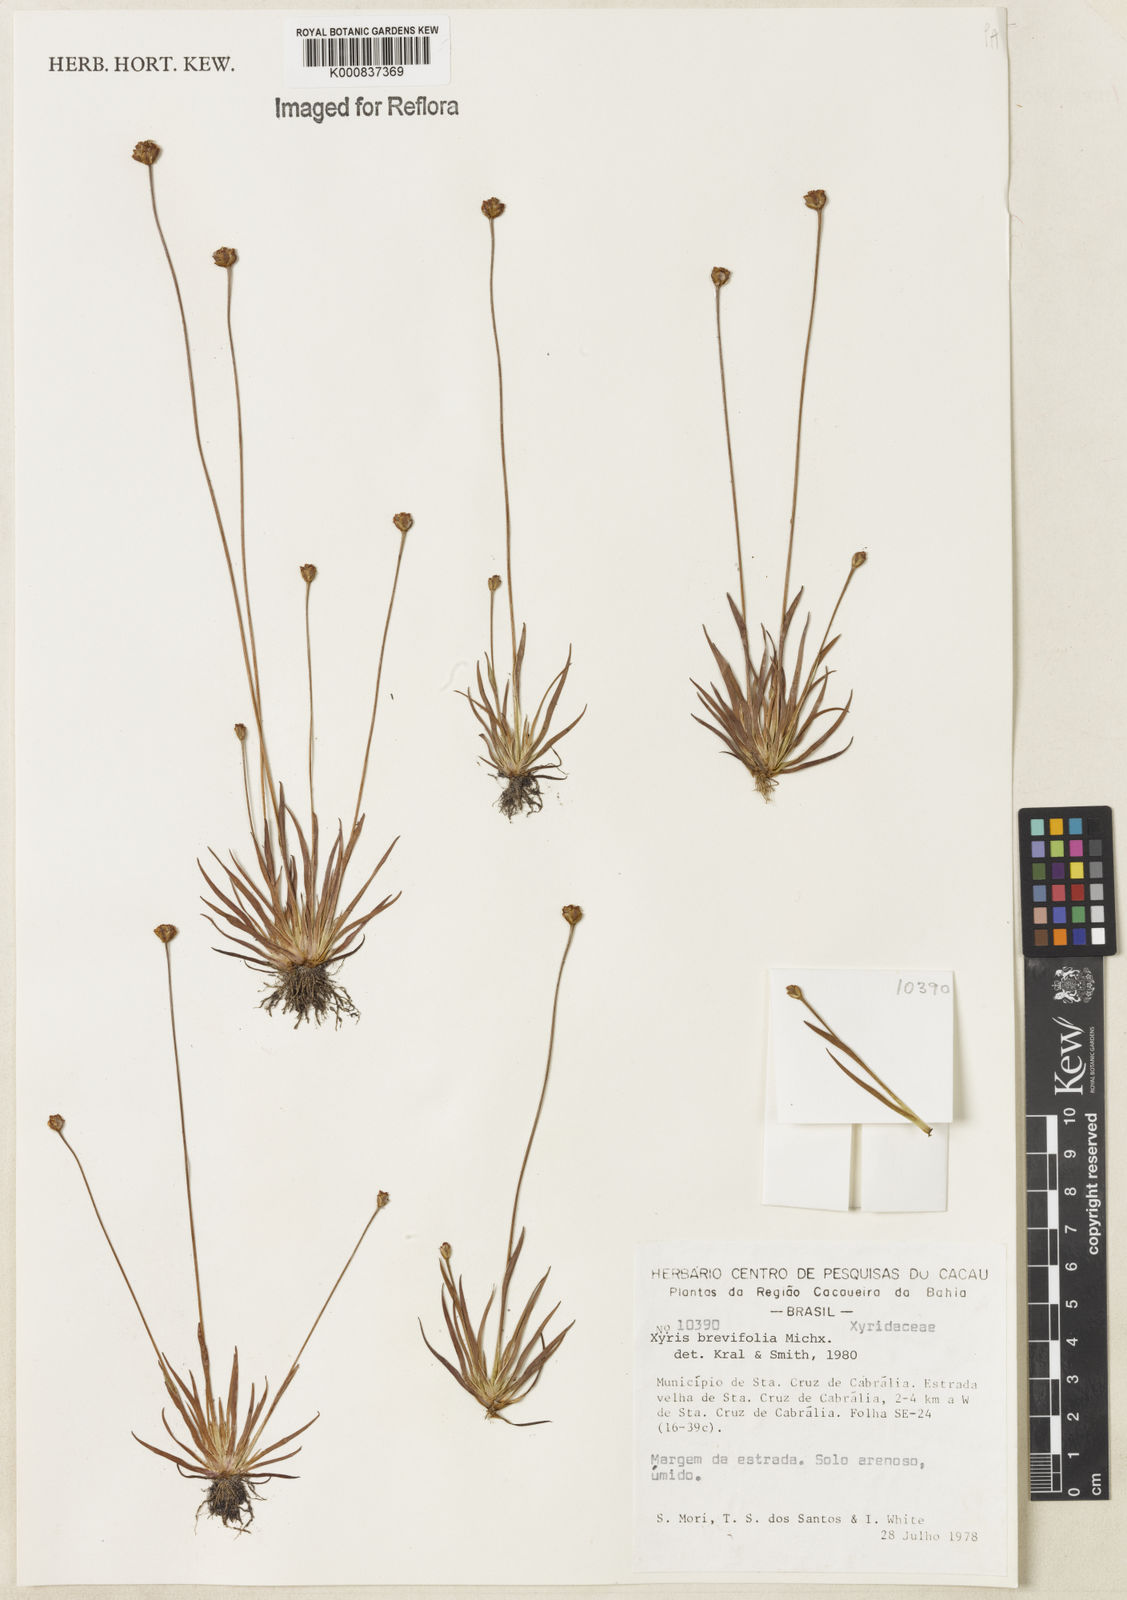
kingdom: Plantae
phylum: Tracheophyta
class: Liliopsida
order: Poales
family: Xyridaceae
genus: Xyris
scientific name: Xyris brevifolia
